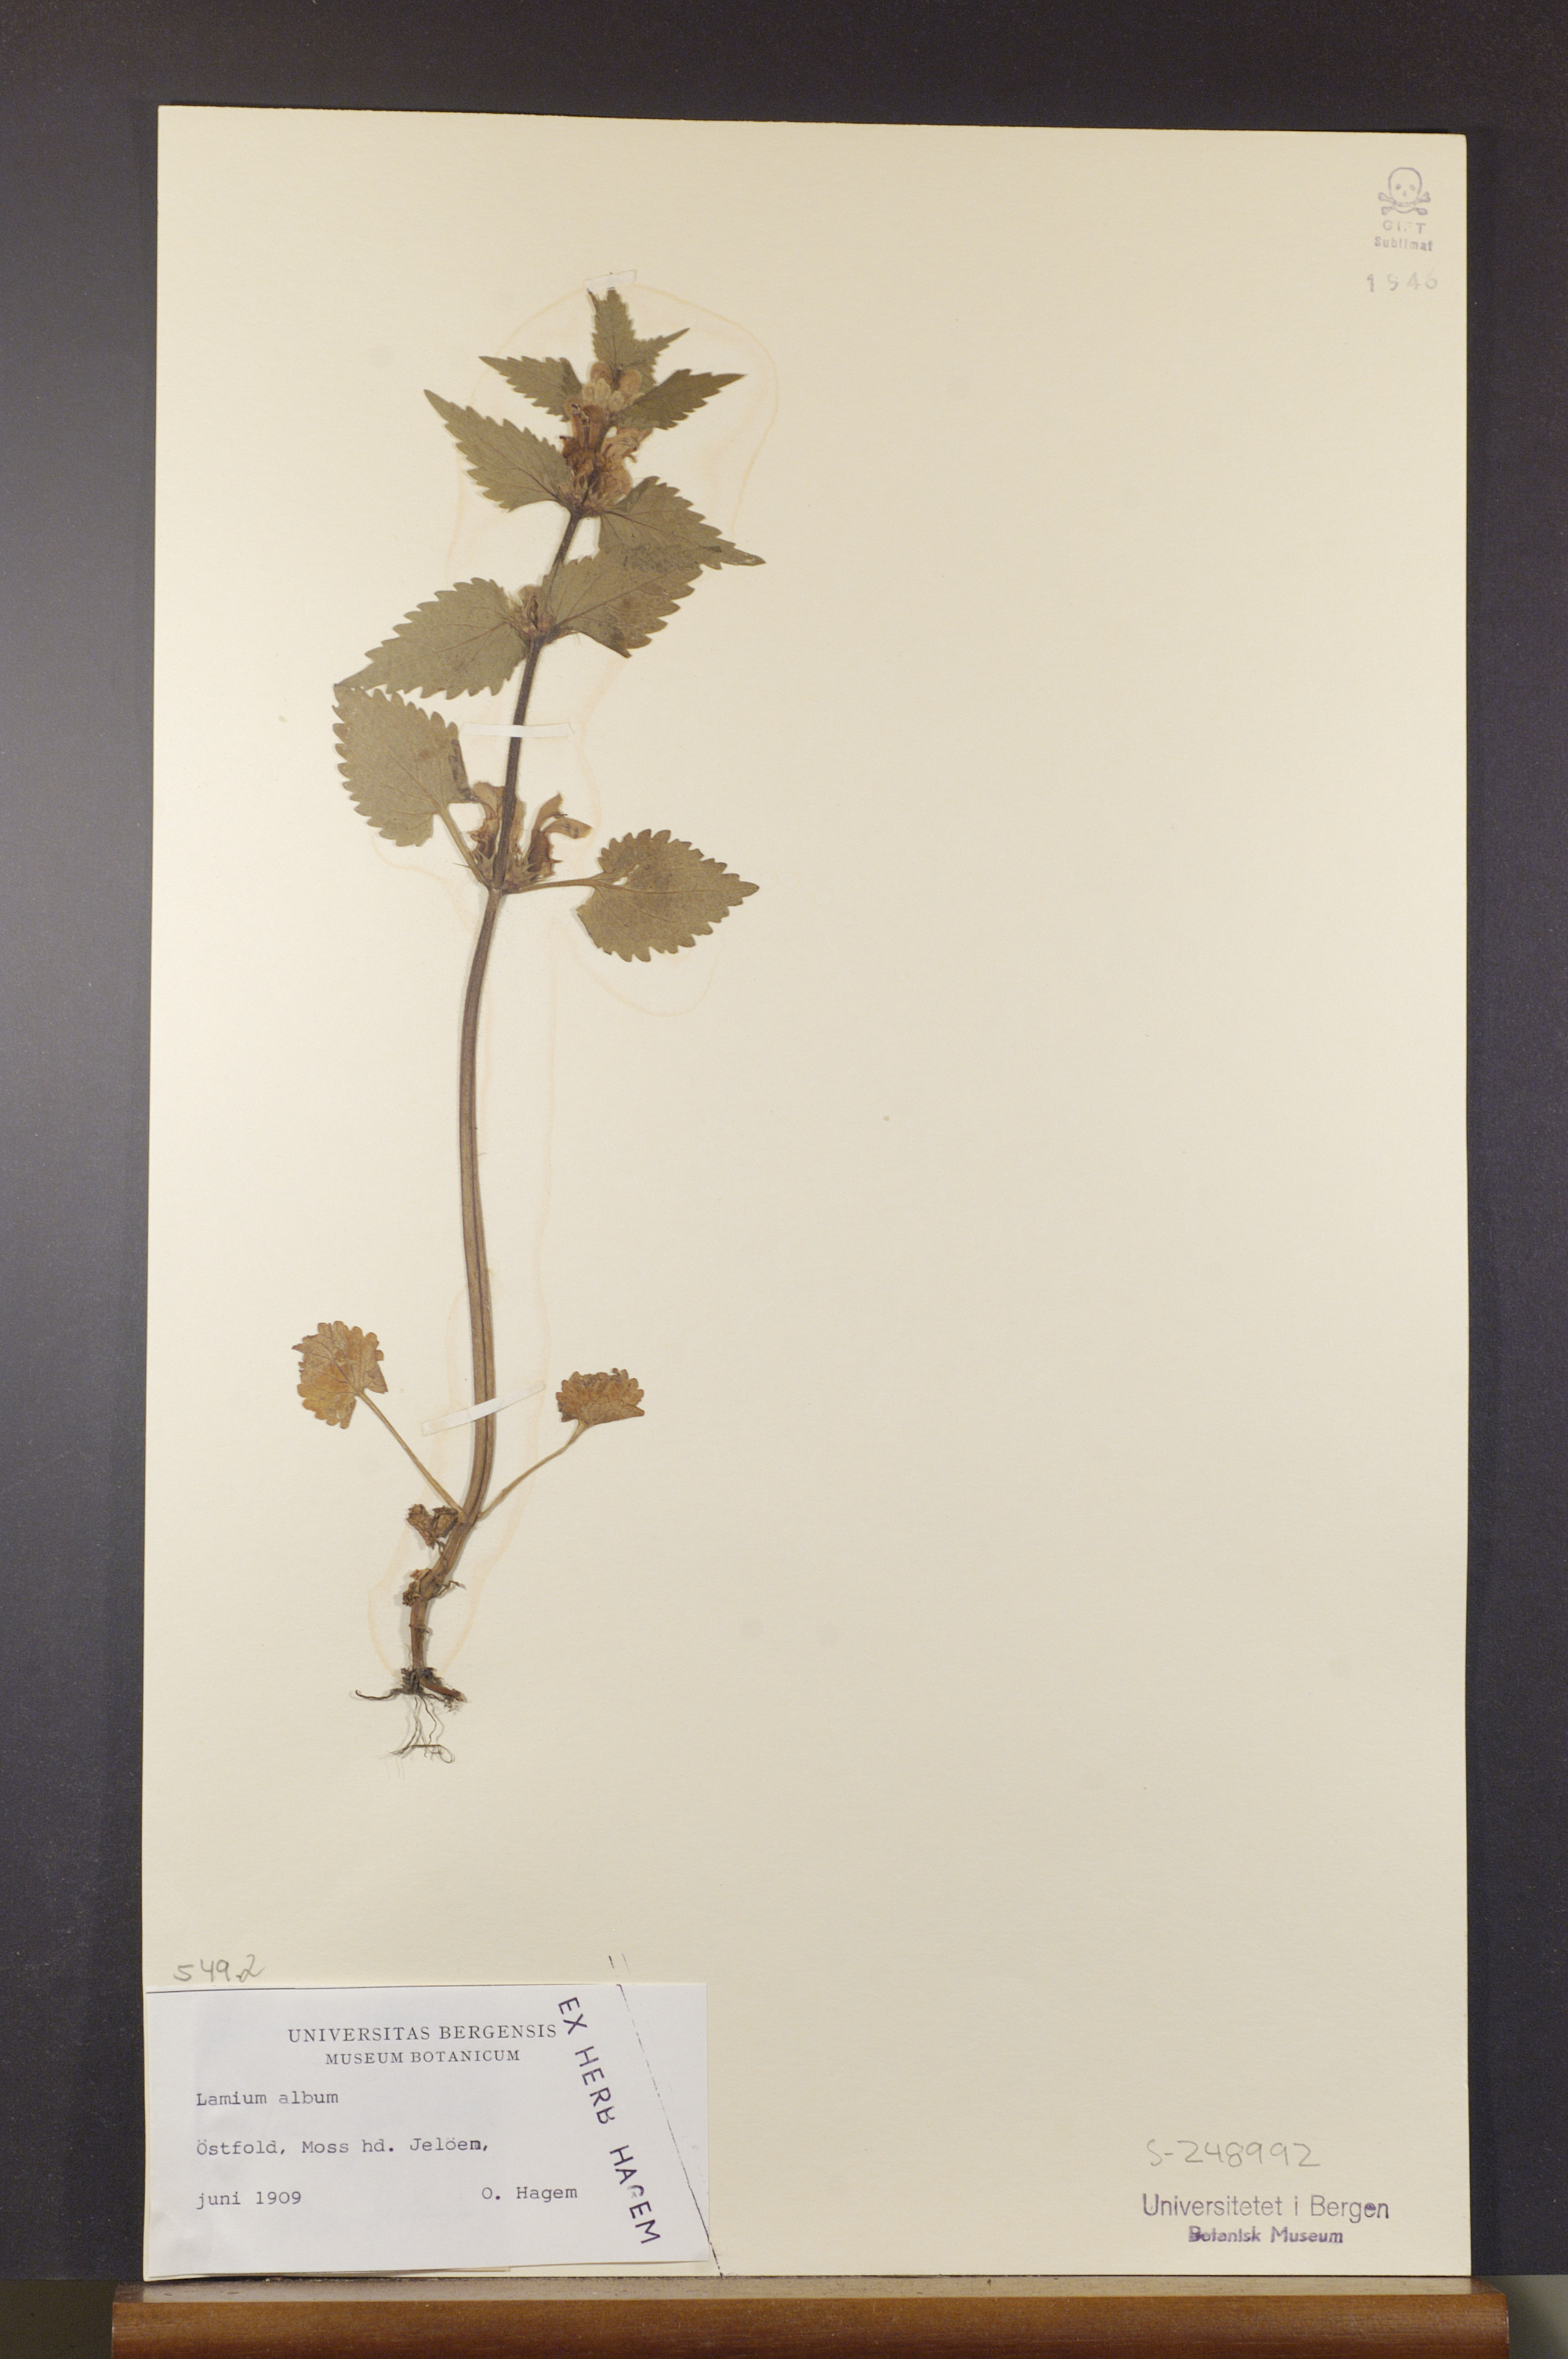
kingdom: Plantae
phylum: Tracheophyta
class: Magnoliopsida
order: Lamiales
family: Lamiaceae
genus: Lamium
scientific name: Lamium album
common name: White dead-nettle
